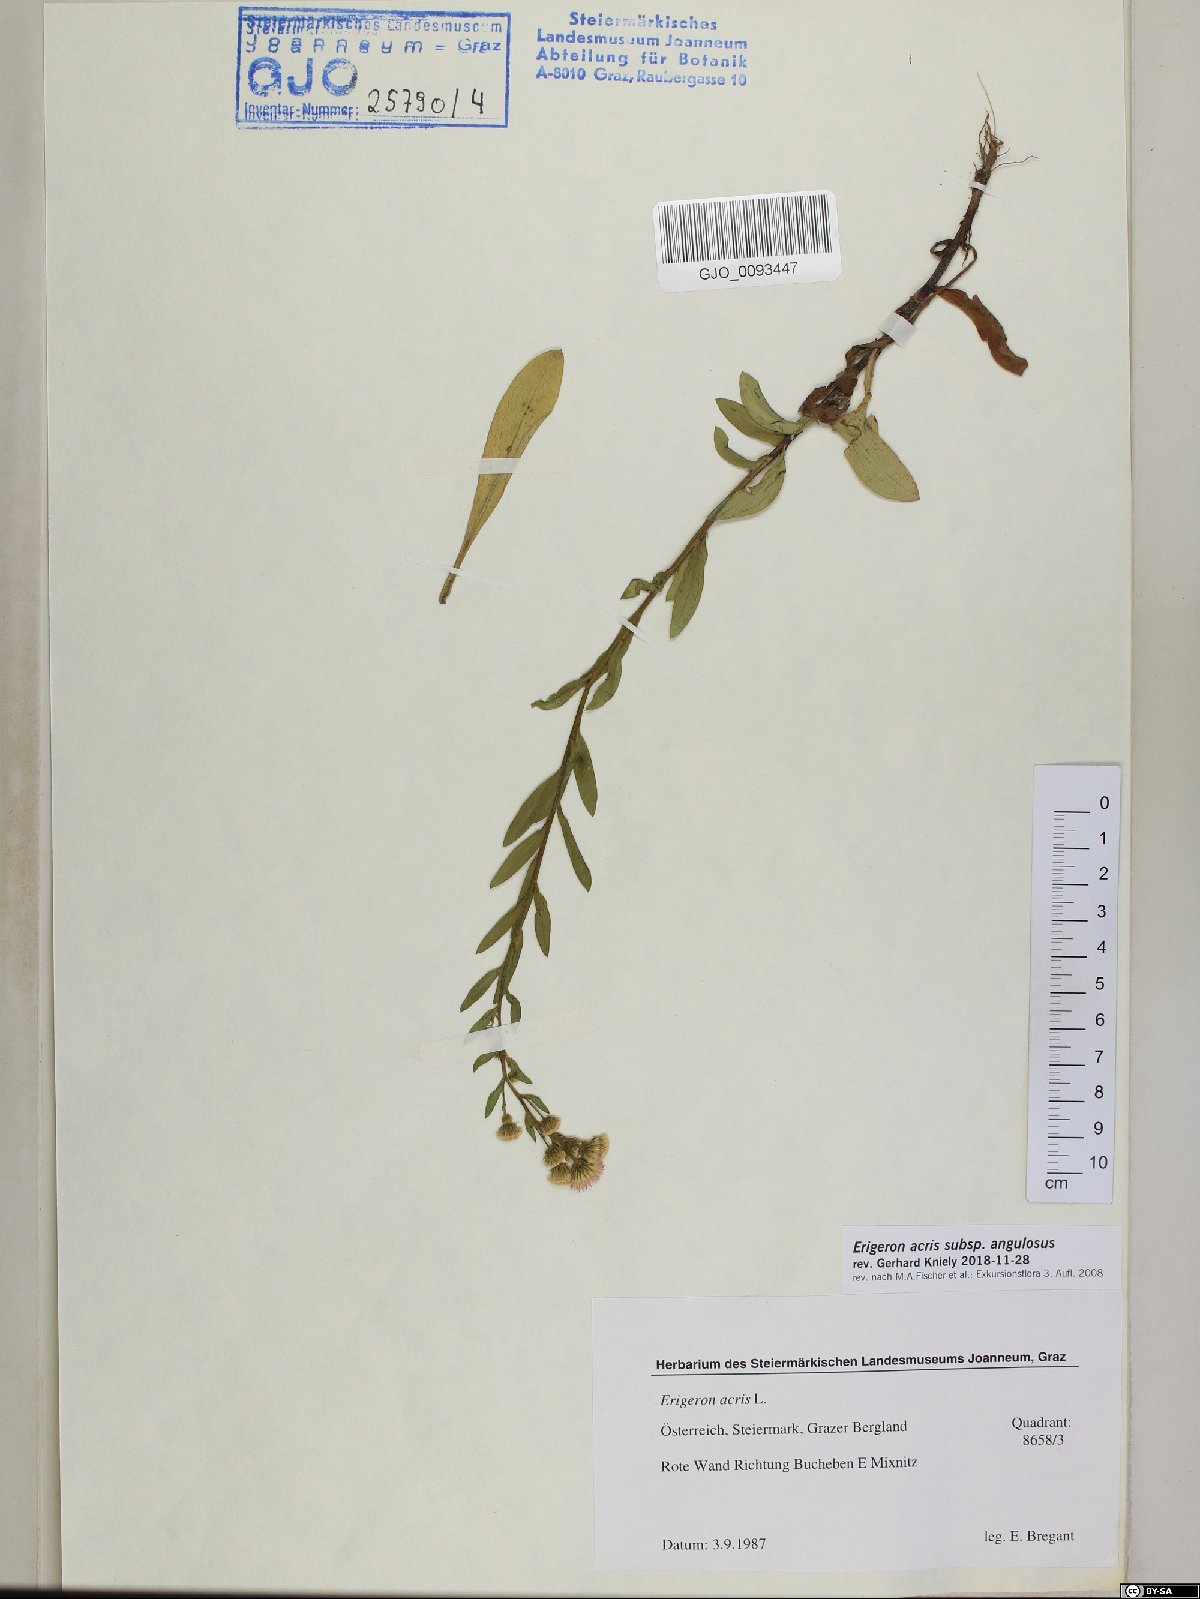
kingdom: Plantae
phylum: Tracheophyta
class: Magnoliopsida
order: Asterales
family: Asteraceae
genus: Erigeron
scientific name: Erigeron angulosus
